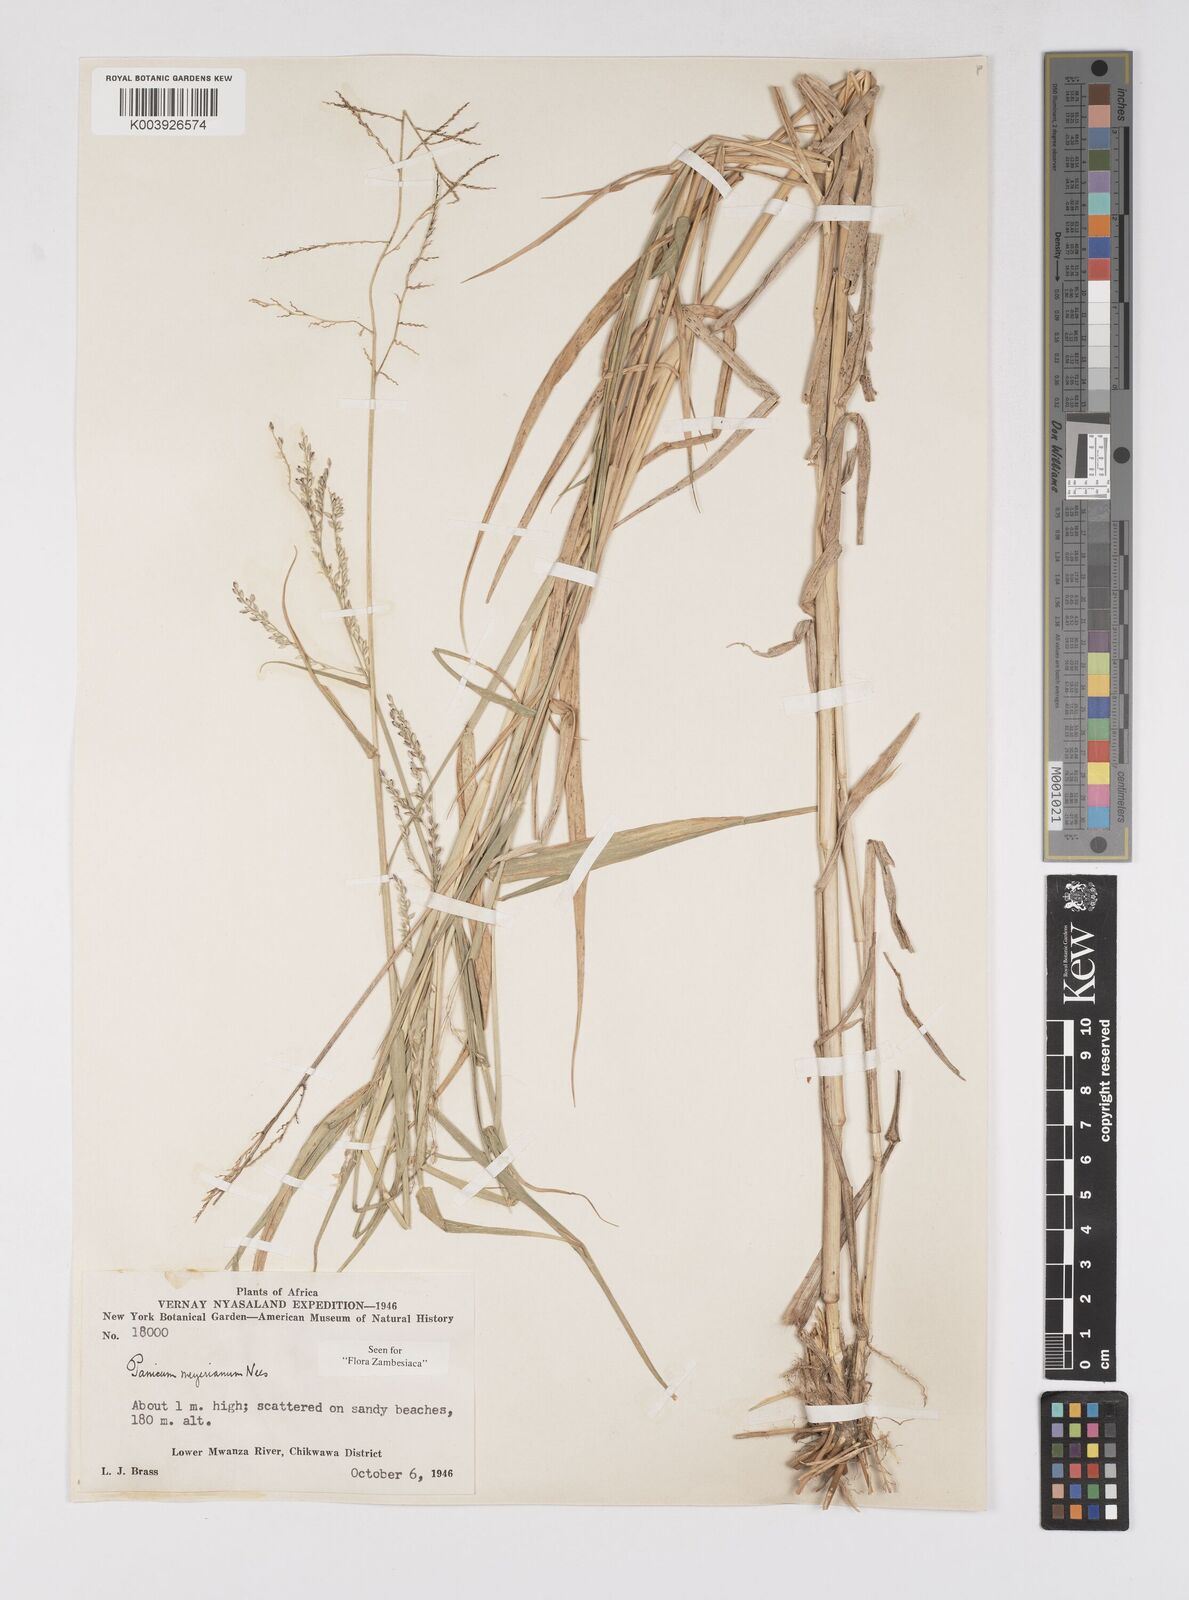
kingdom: Plantae
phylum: Tracheophyta
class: Liliopsida
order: Poales
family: Poaceae
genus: Eriochloa
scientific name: Eriochloa meyeriana
